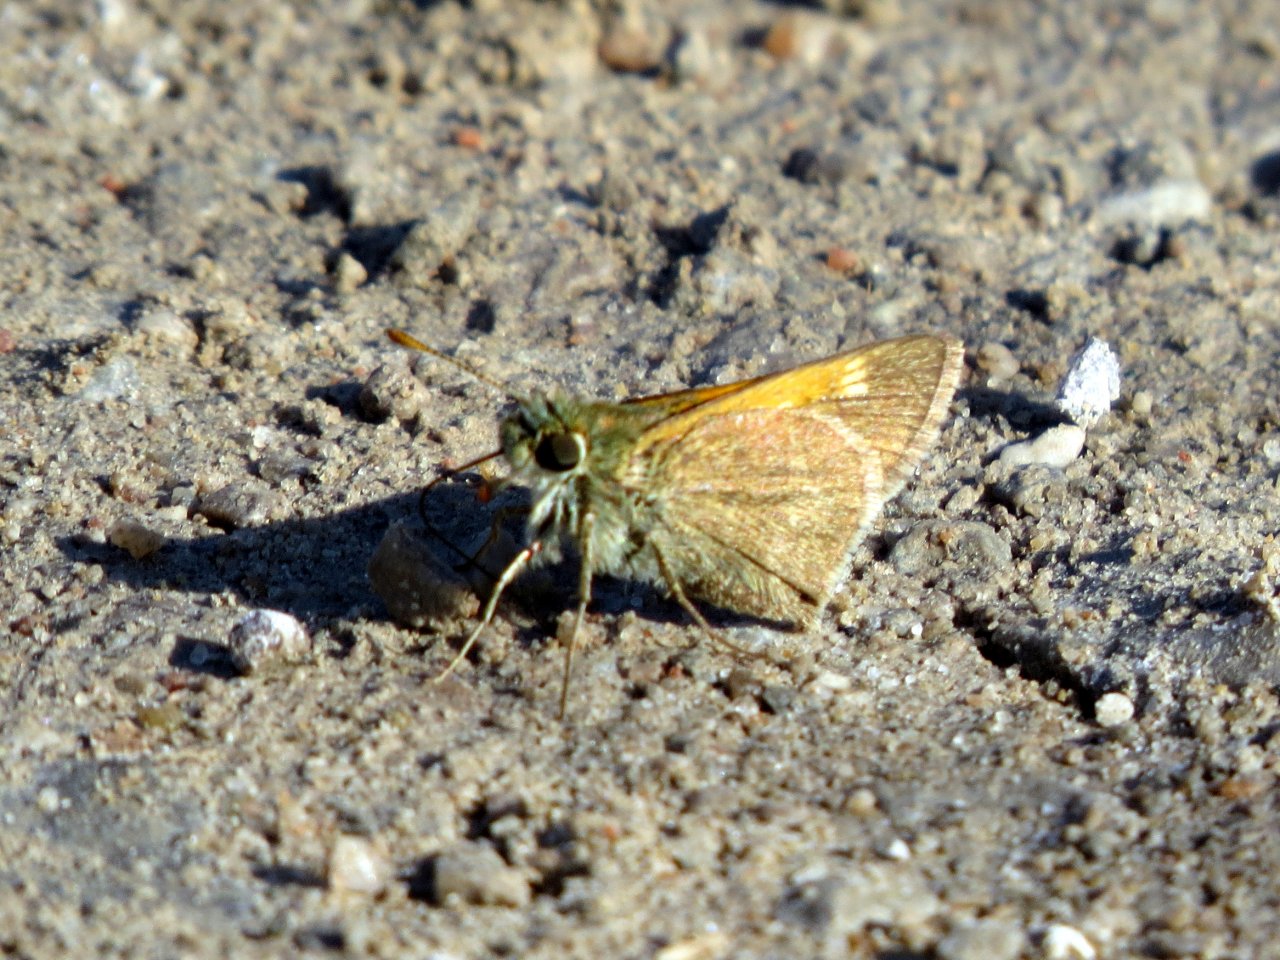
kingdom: Animalia
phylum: Arthropoda
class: Insecta
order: Lepidoptera
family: Hesperiidae
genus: Polites
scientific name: Polites themistocles
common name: Tawny-edged Skipper
